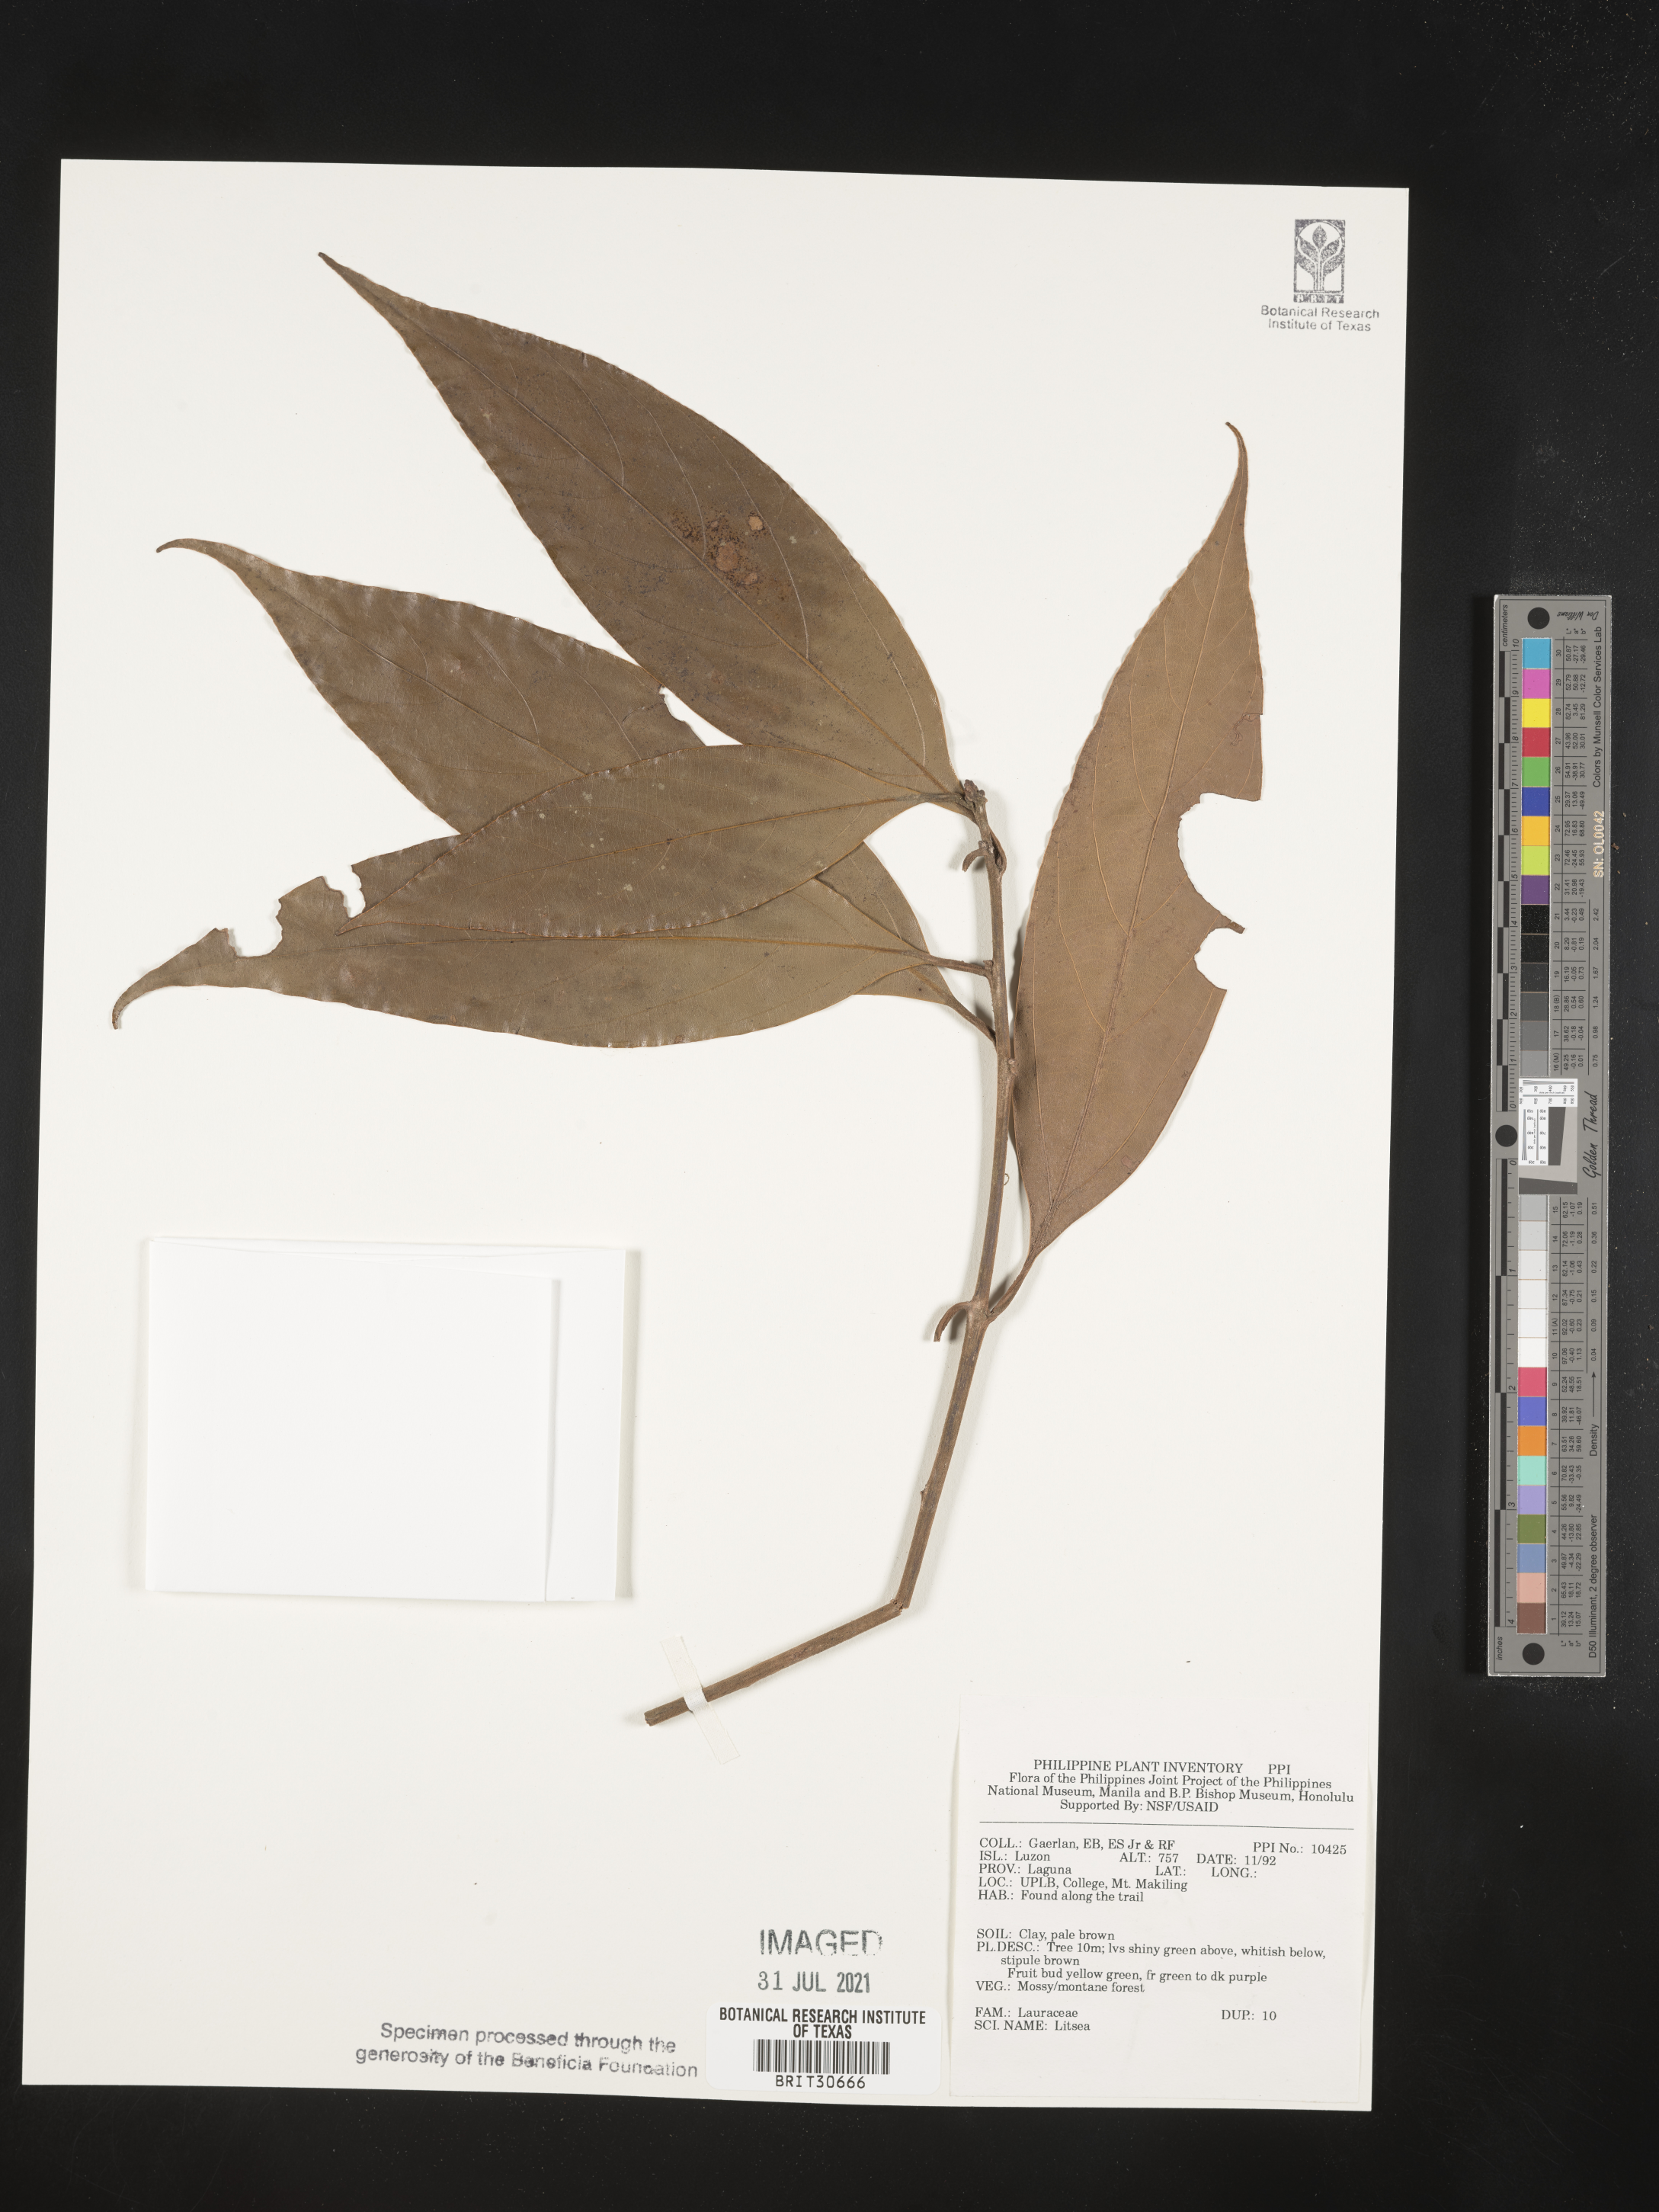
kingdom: Plantae
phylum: Tracheophyta
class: Magnoliopsida
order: Laurales
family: Lauraceae
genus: Litsea
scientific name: Litsea
